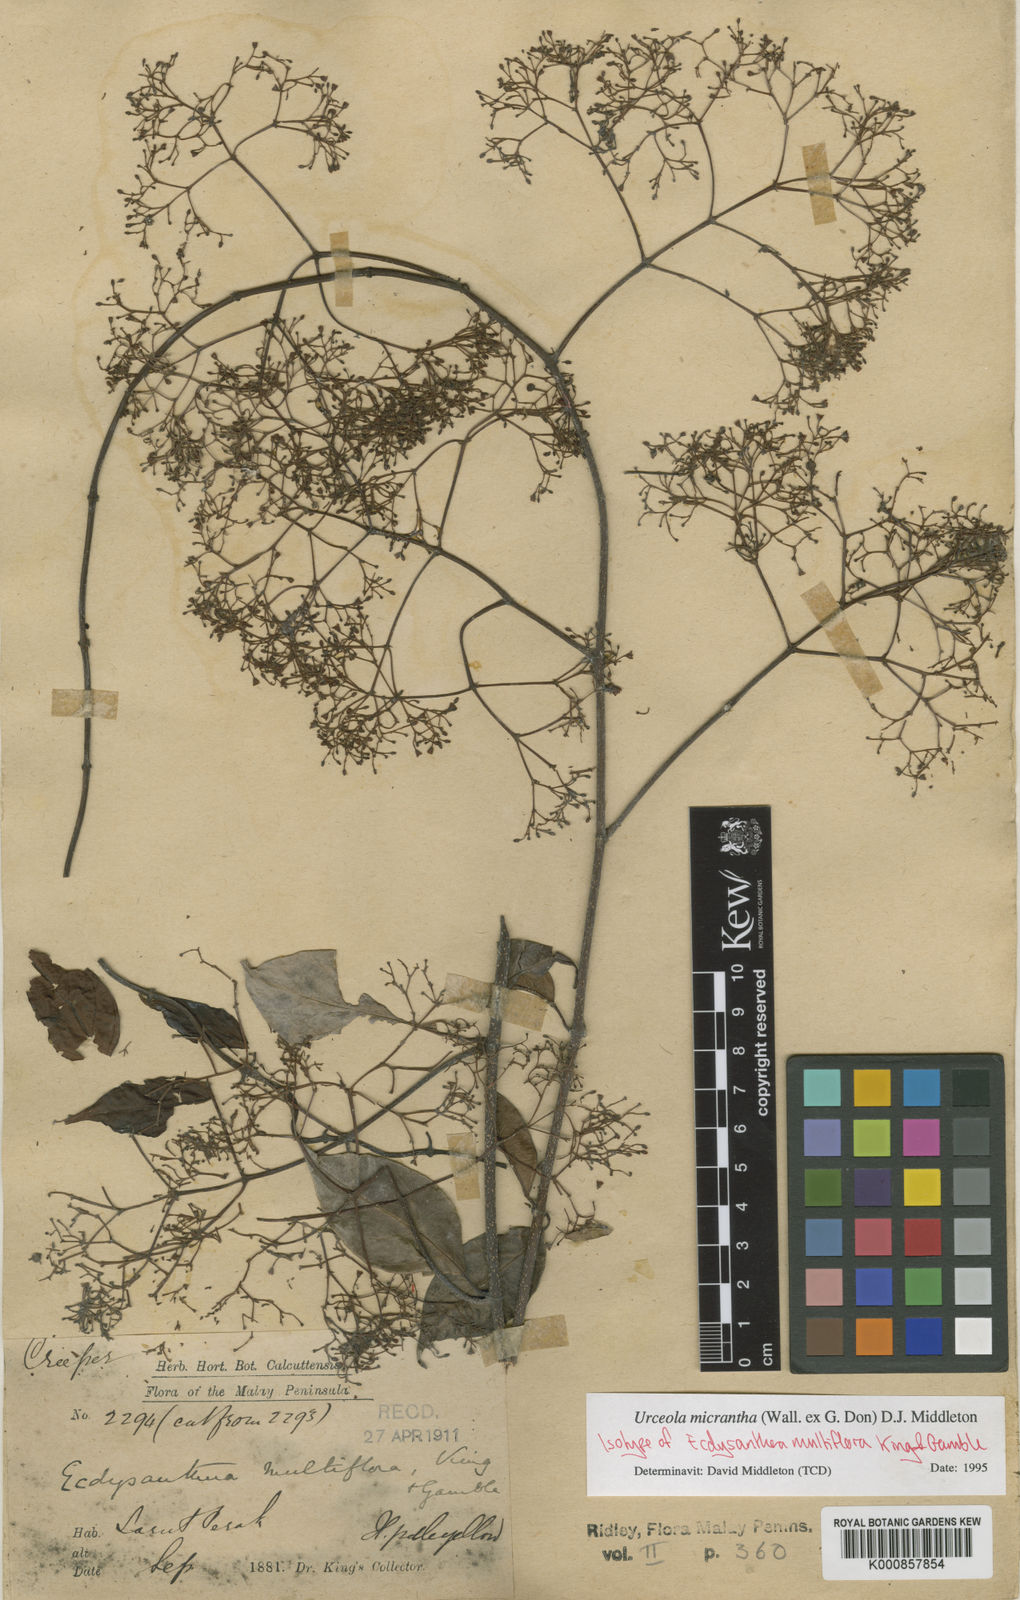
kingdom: Plantae
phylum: Tracheophyta
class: Magnoliopsida
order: Gentianales
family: Apocynaceae
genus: Urceola
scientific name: Urceola micrantha
